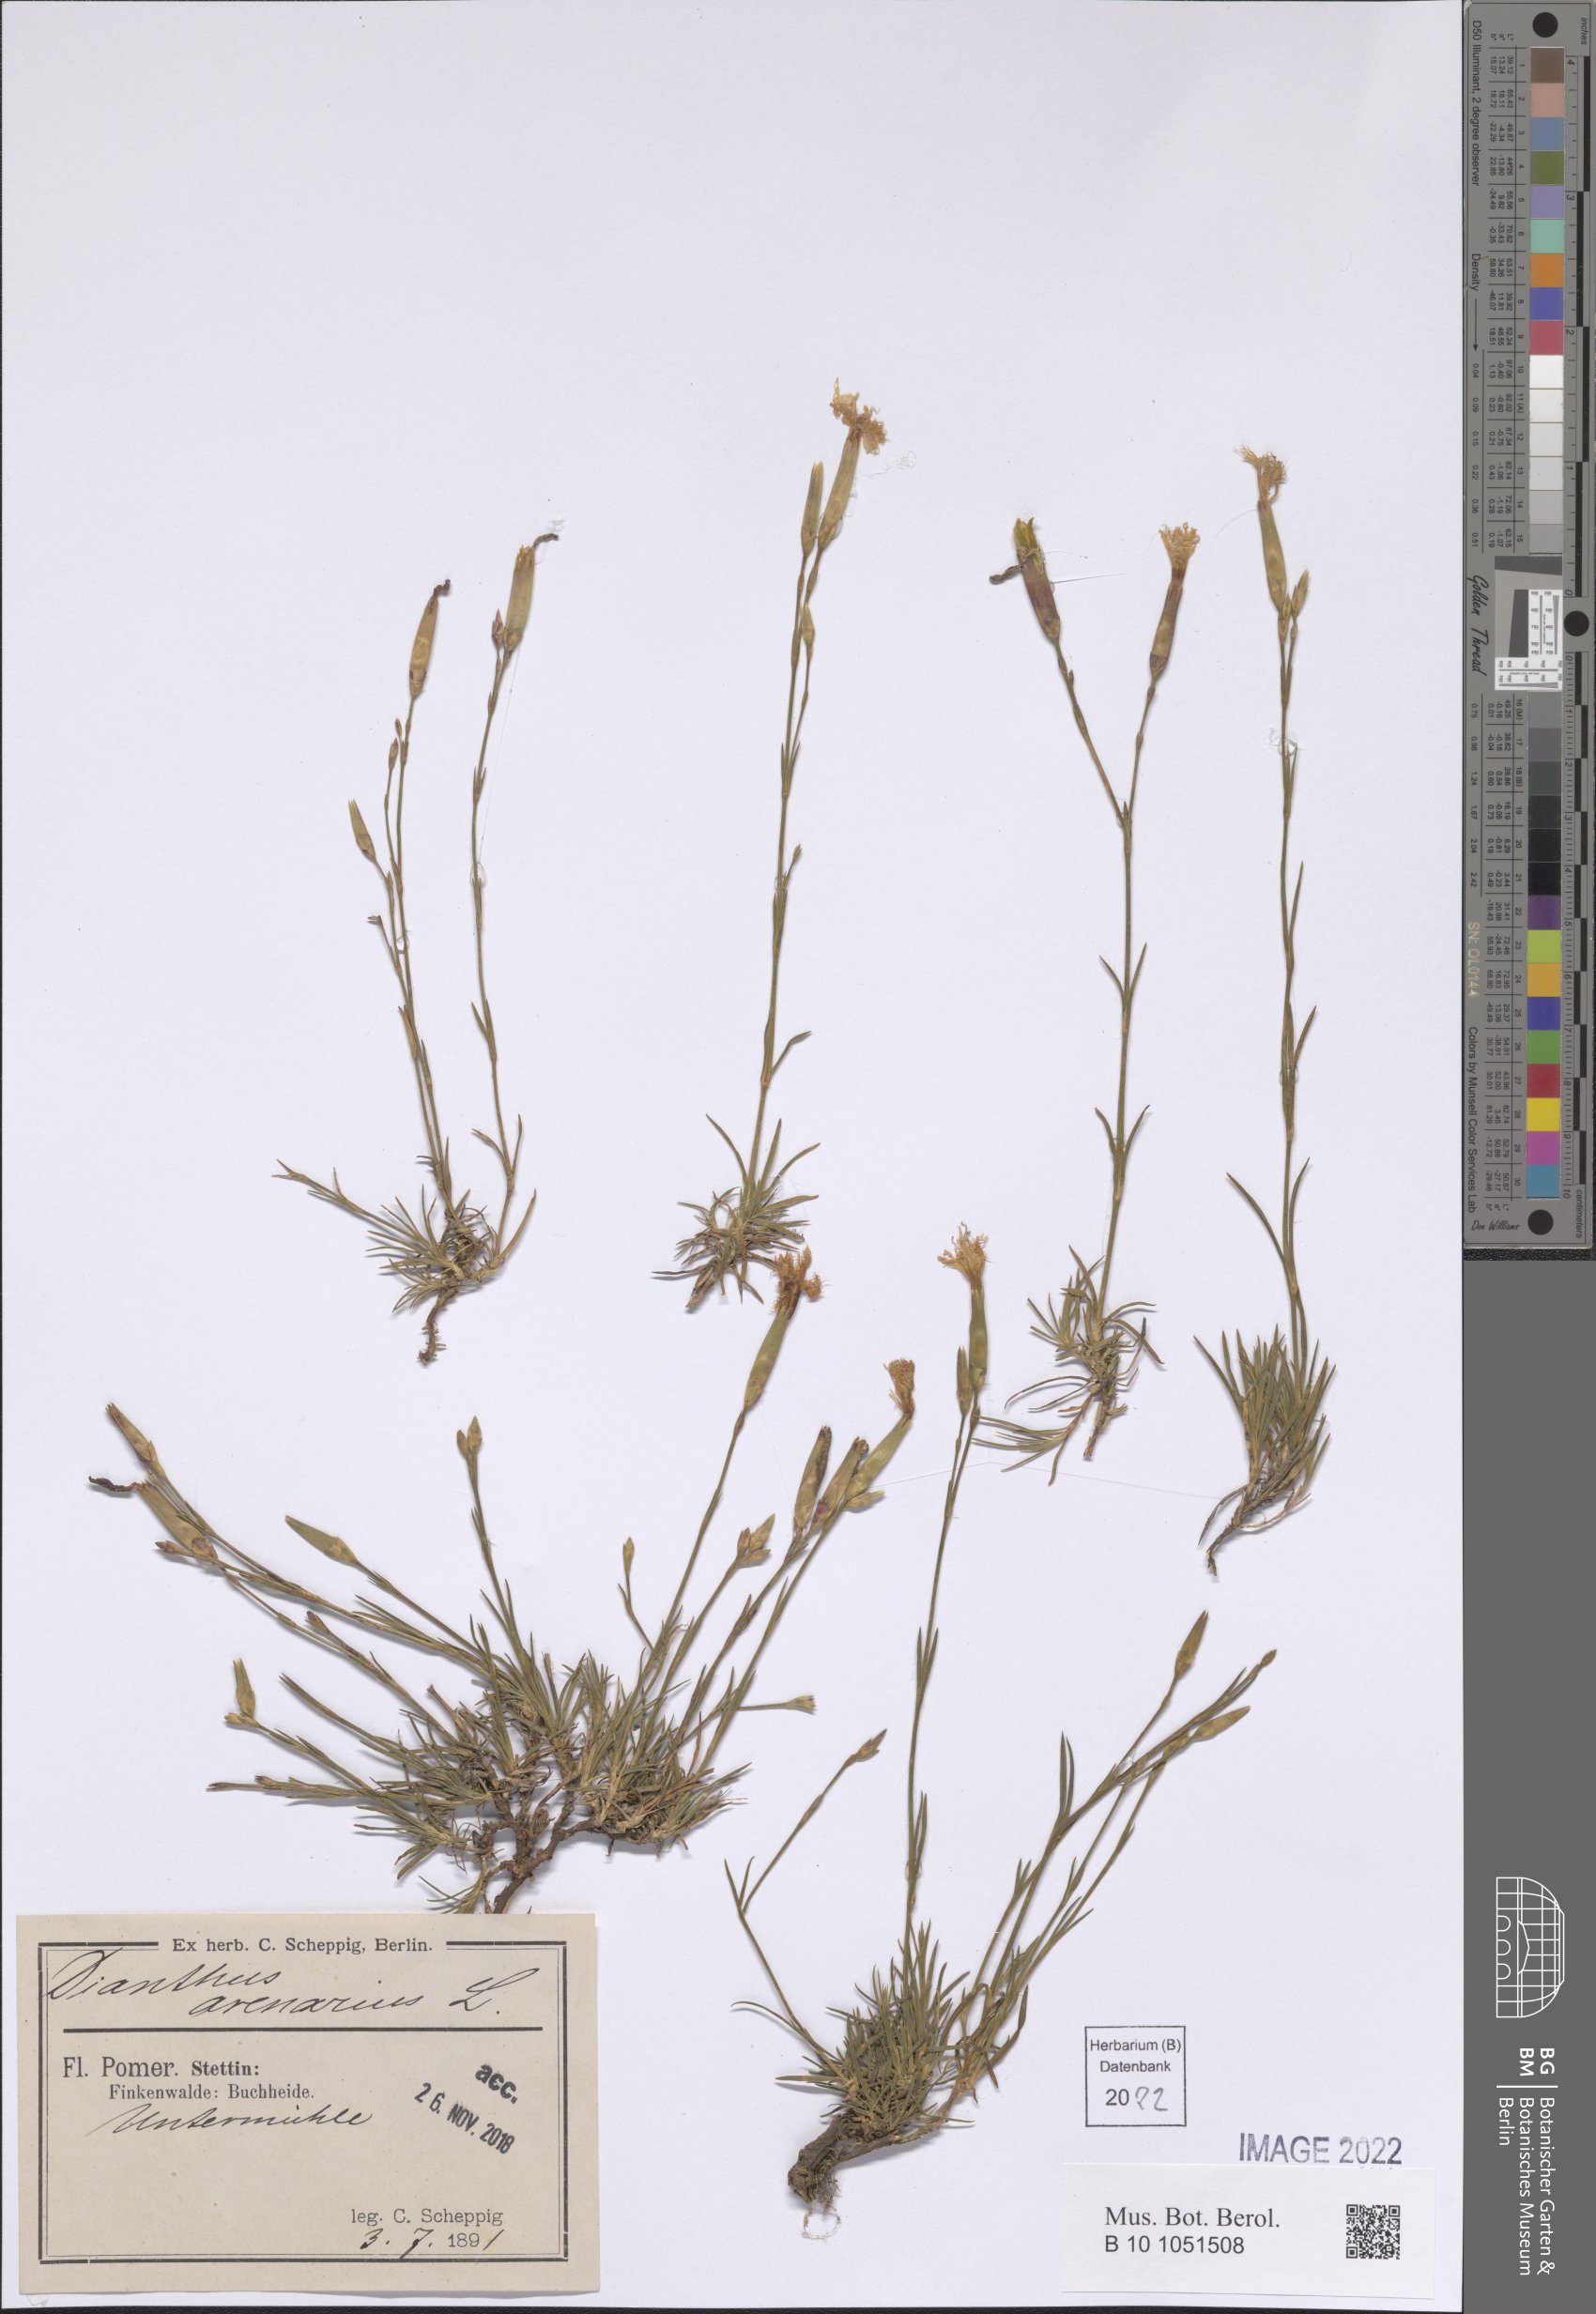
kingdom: Plantae
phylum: Tracheophyta
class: Magnoliopsida
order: Caryophyllales
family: Caryophyllaceae
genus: Dianthus
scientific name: Dianthus arenarius
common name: Stone pink
